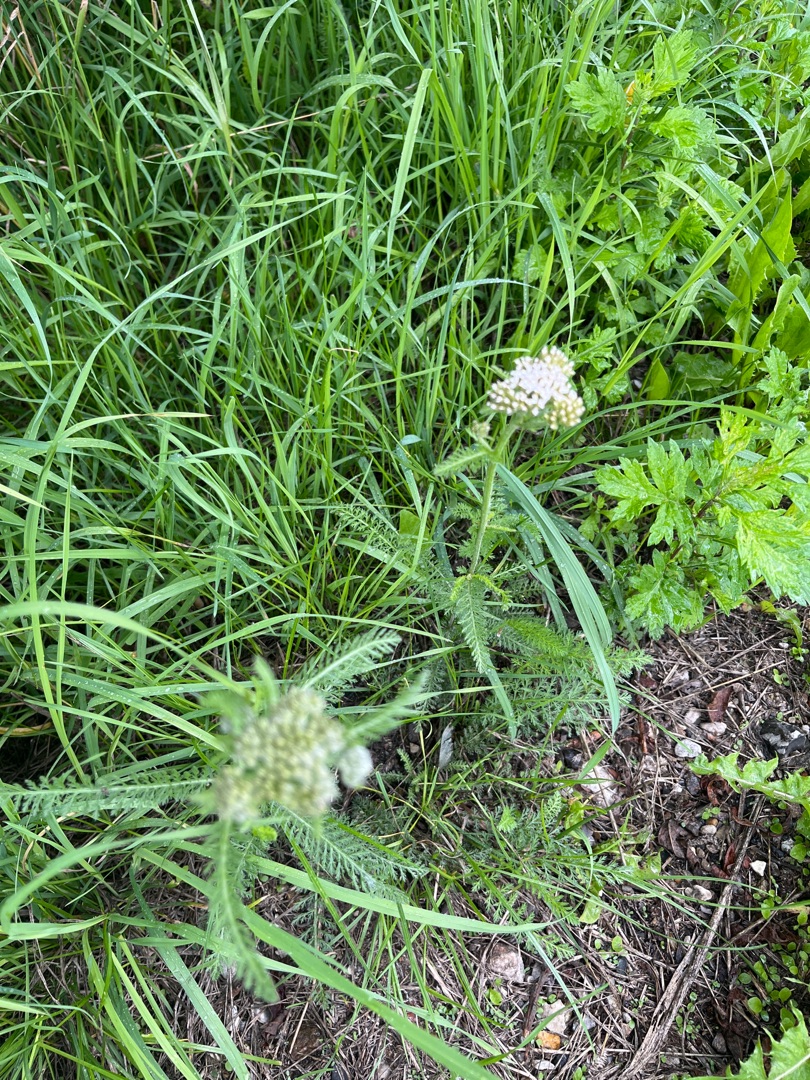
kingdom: Plantae
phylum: Tracheophyta
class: Magnoliopsida
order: Asterales
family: Asteraceae
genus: Achillea
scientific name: Achillea millefolium
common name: Almindelig røllike
